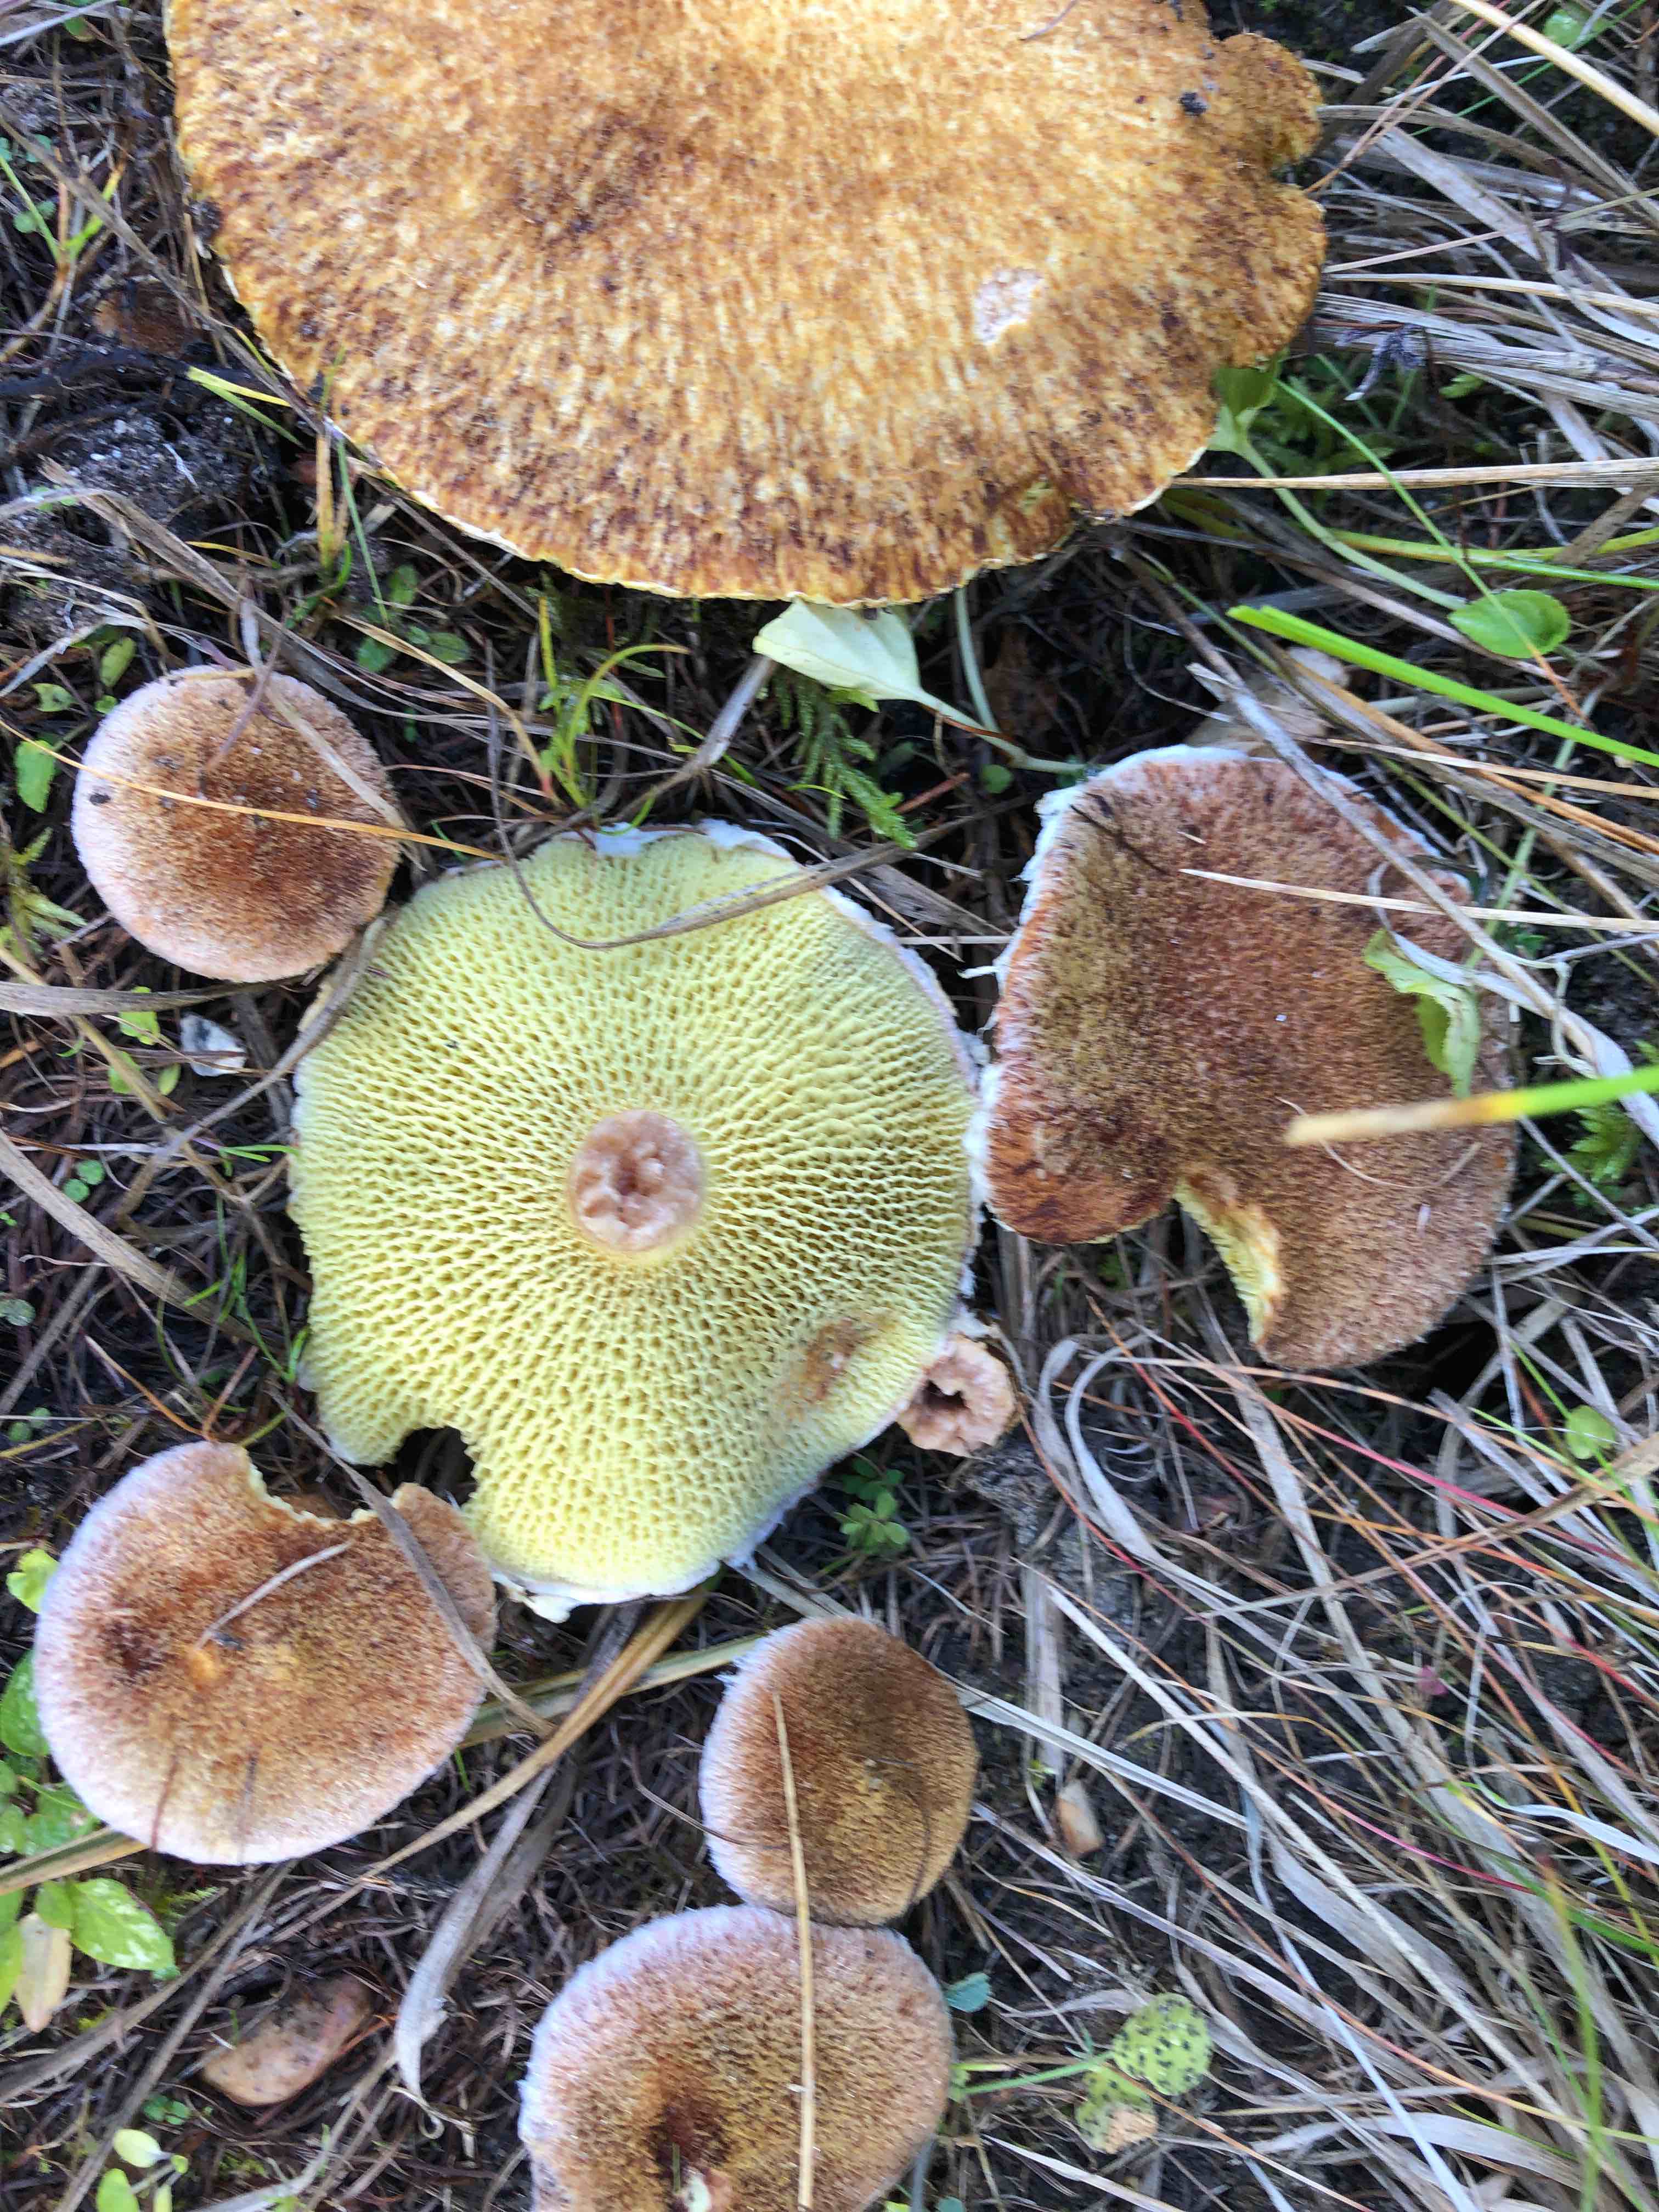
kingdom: Fungi
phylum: Basidiomycota
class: Agaricomycetes
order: Boletales
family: Suillaceae
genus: Suillus
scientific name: Suillus cavipes
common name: hulstokket slimrørhat
